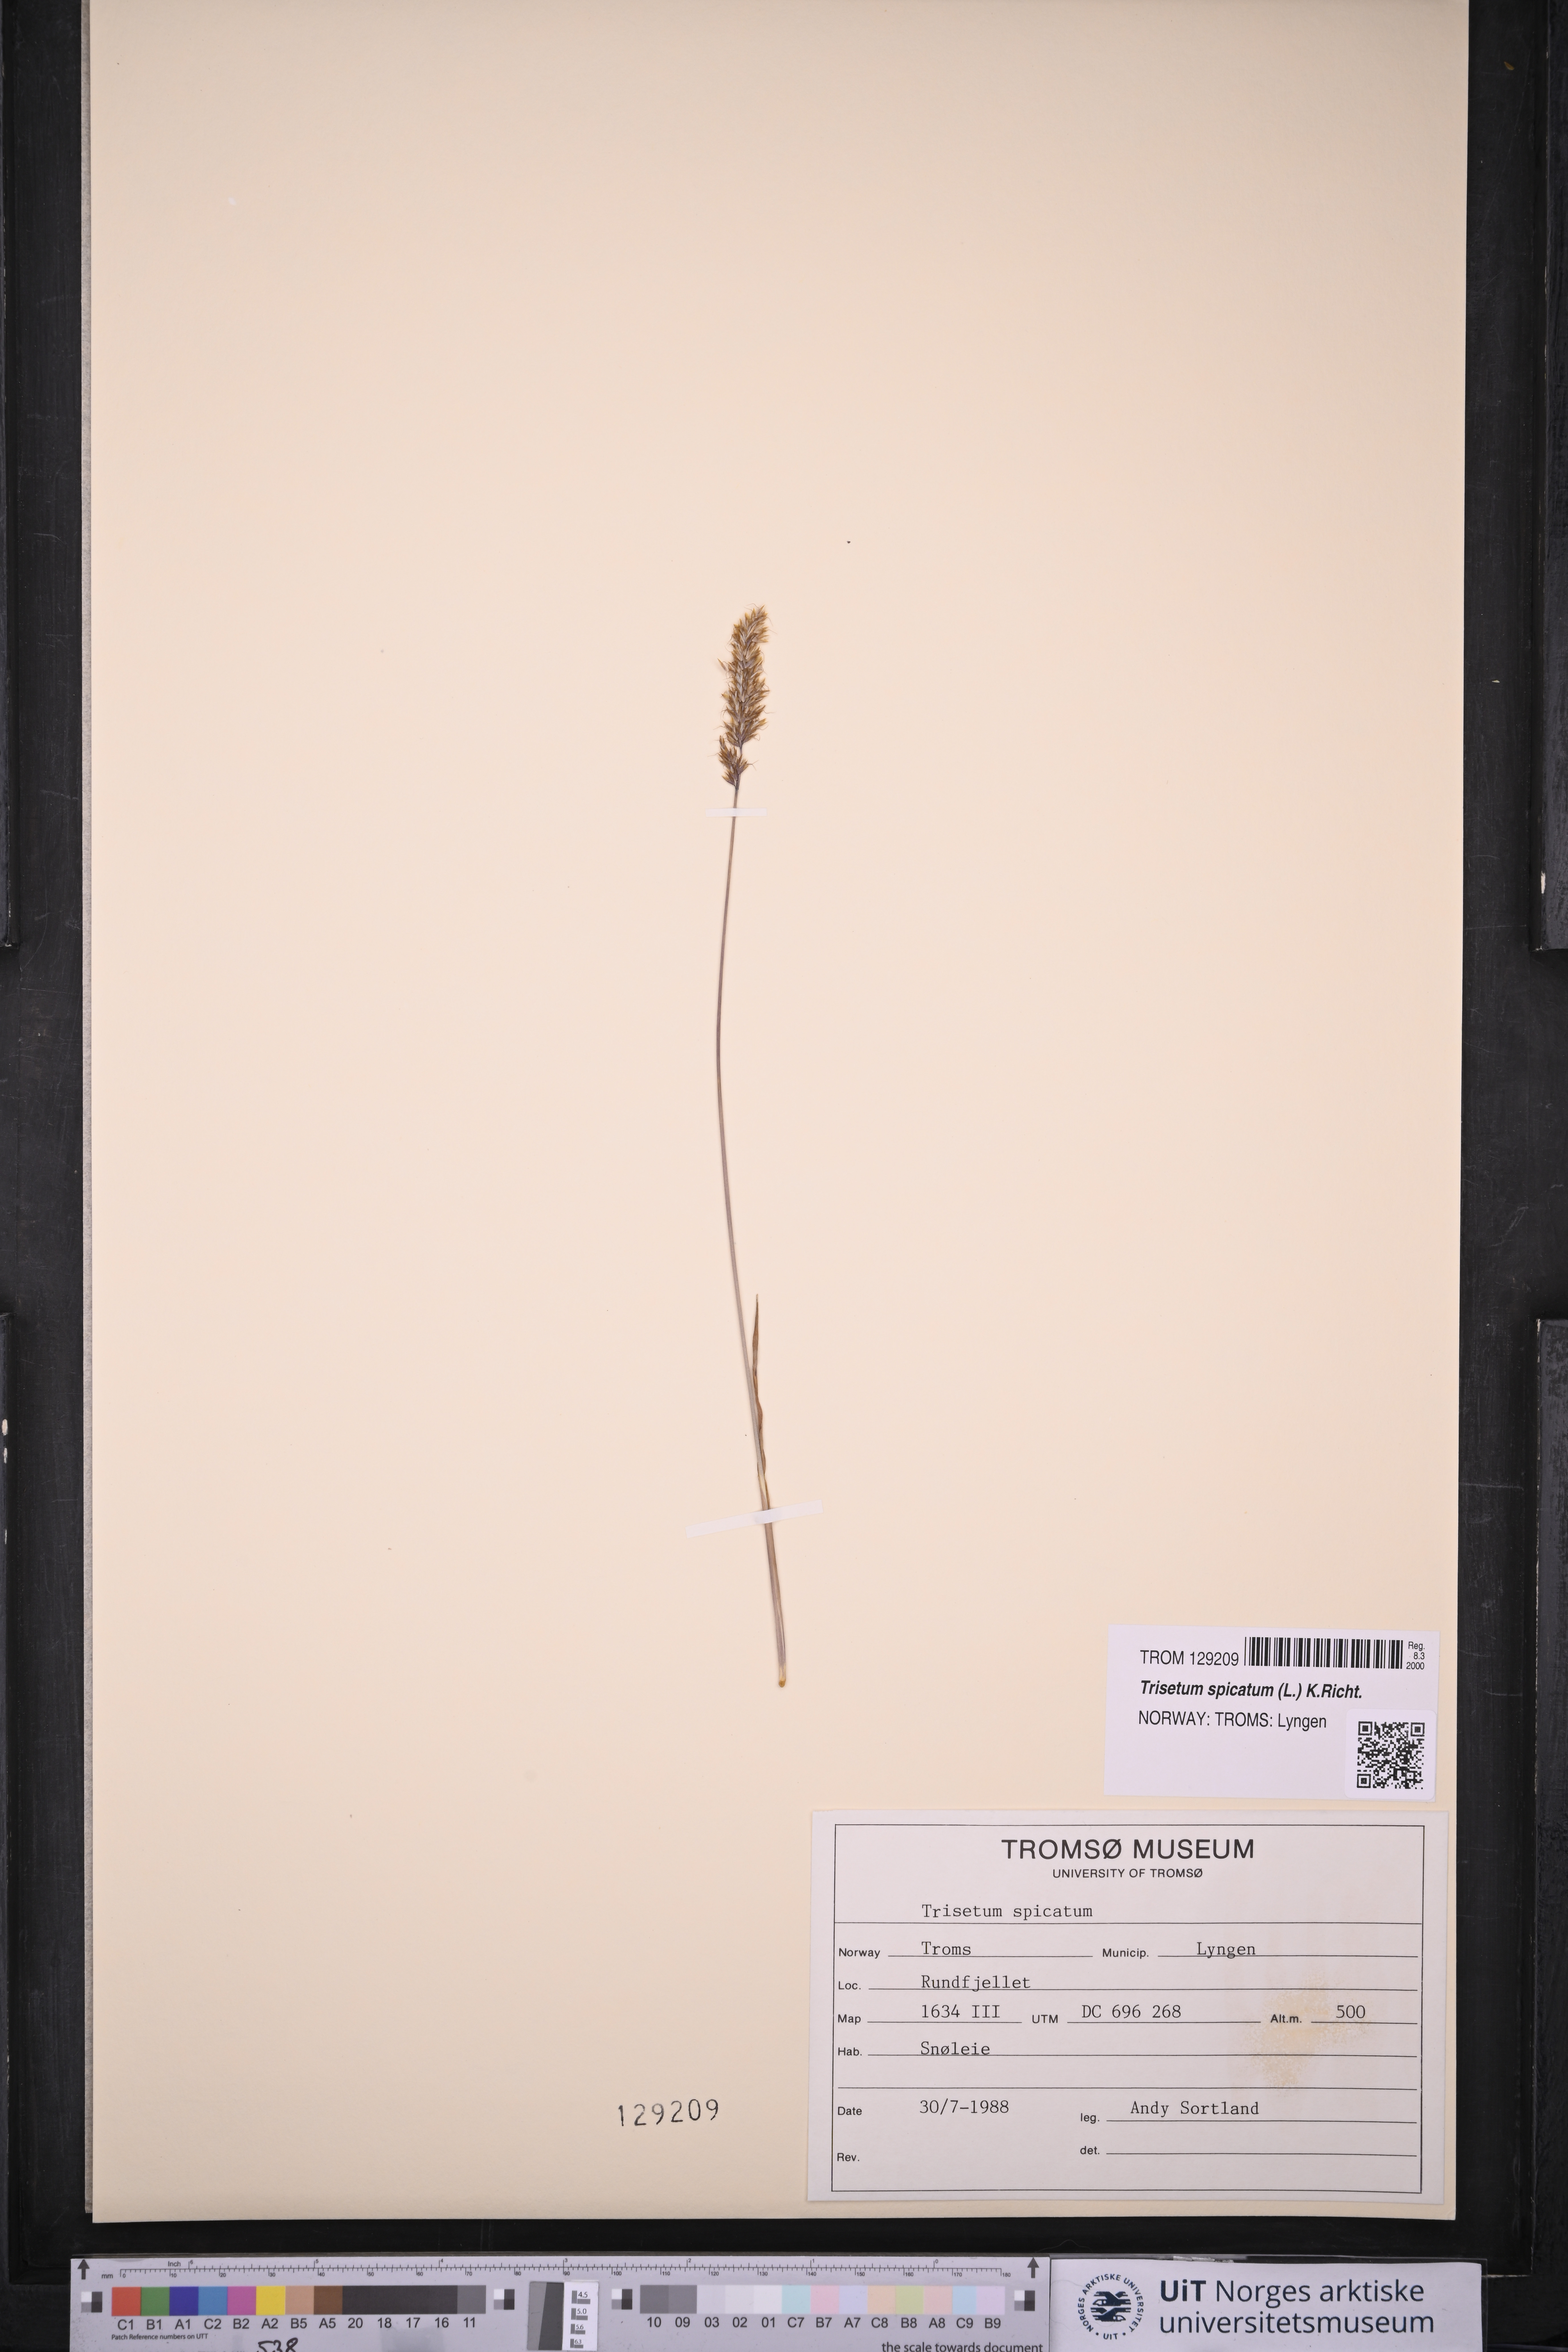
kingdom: Plantae
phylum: Tracheophyta
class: Liliopsida
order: Poales
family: Poaceae
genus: Koeleria
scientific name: Koeleria spicata
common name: Mountain trisetum
